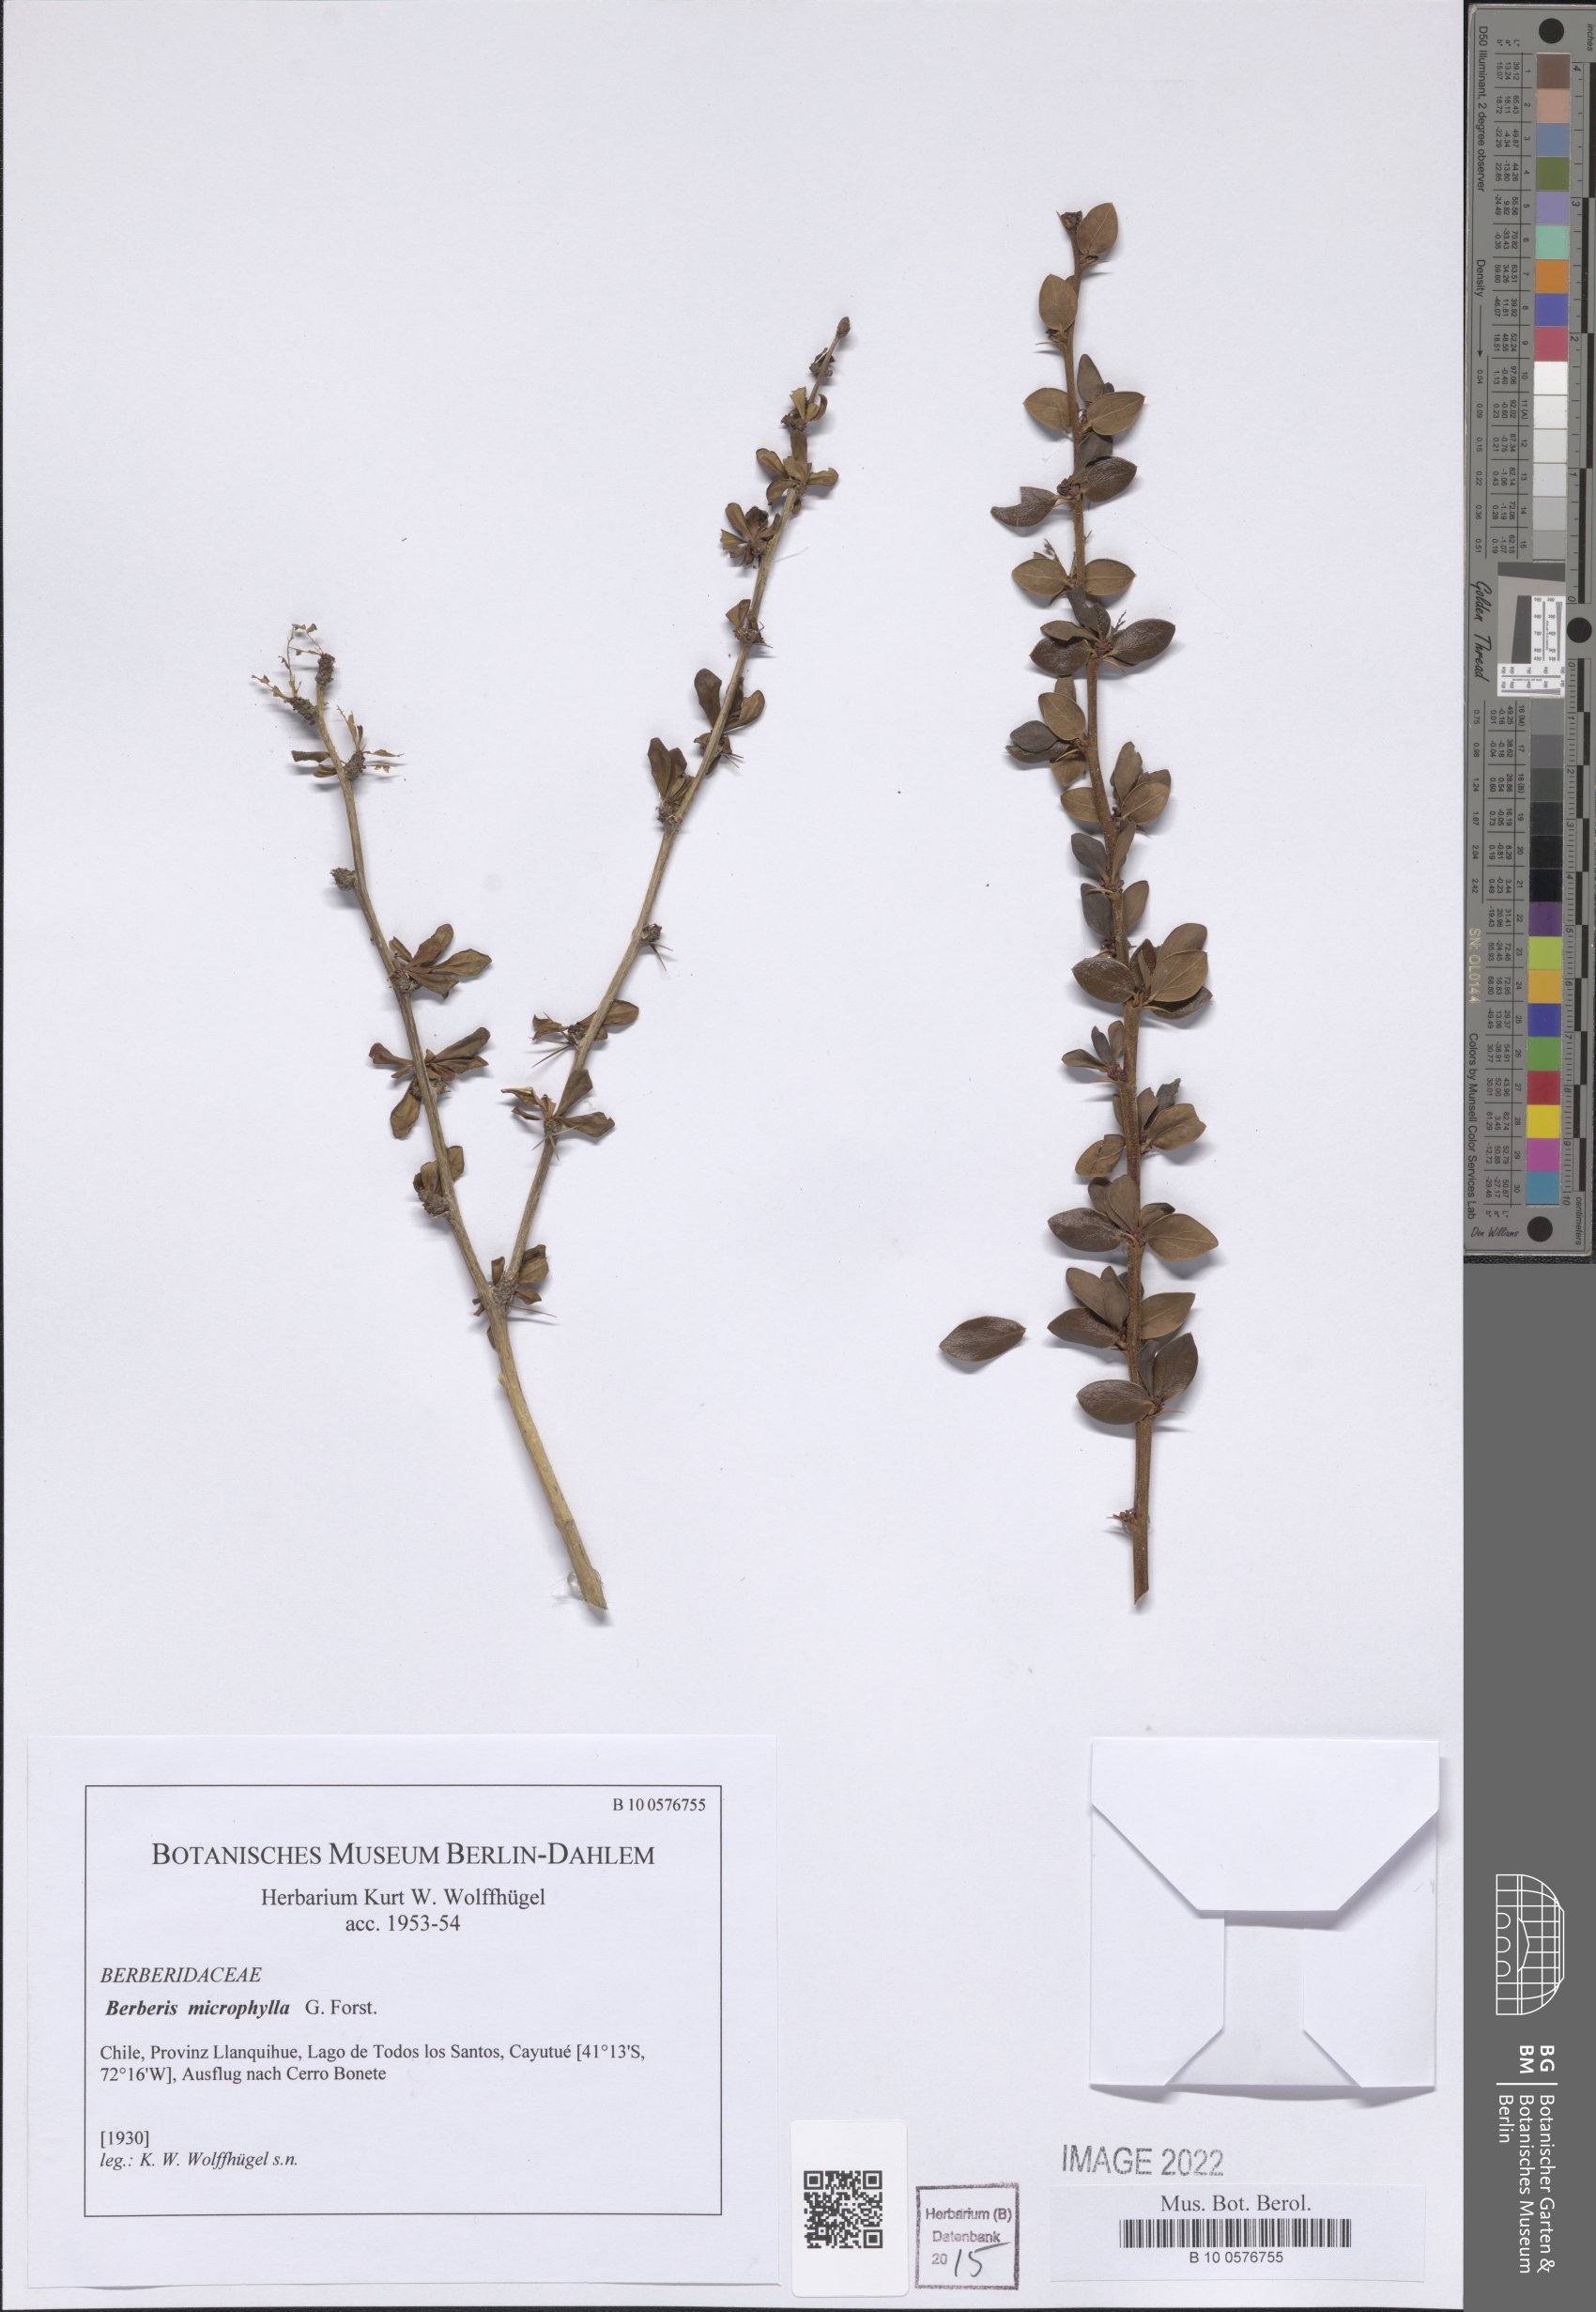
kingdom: Plantae
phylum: Tracheophyta
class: Magnoliopsida
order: Ranunculales
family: Berberidaceae
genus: Berberis
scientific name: Berberis microphylla
